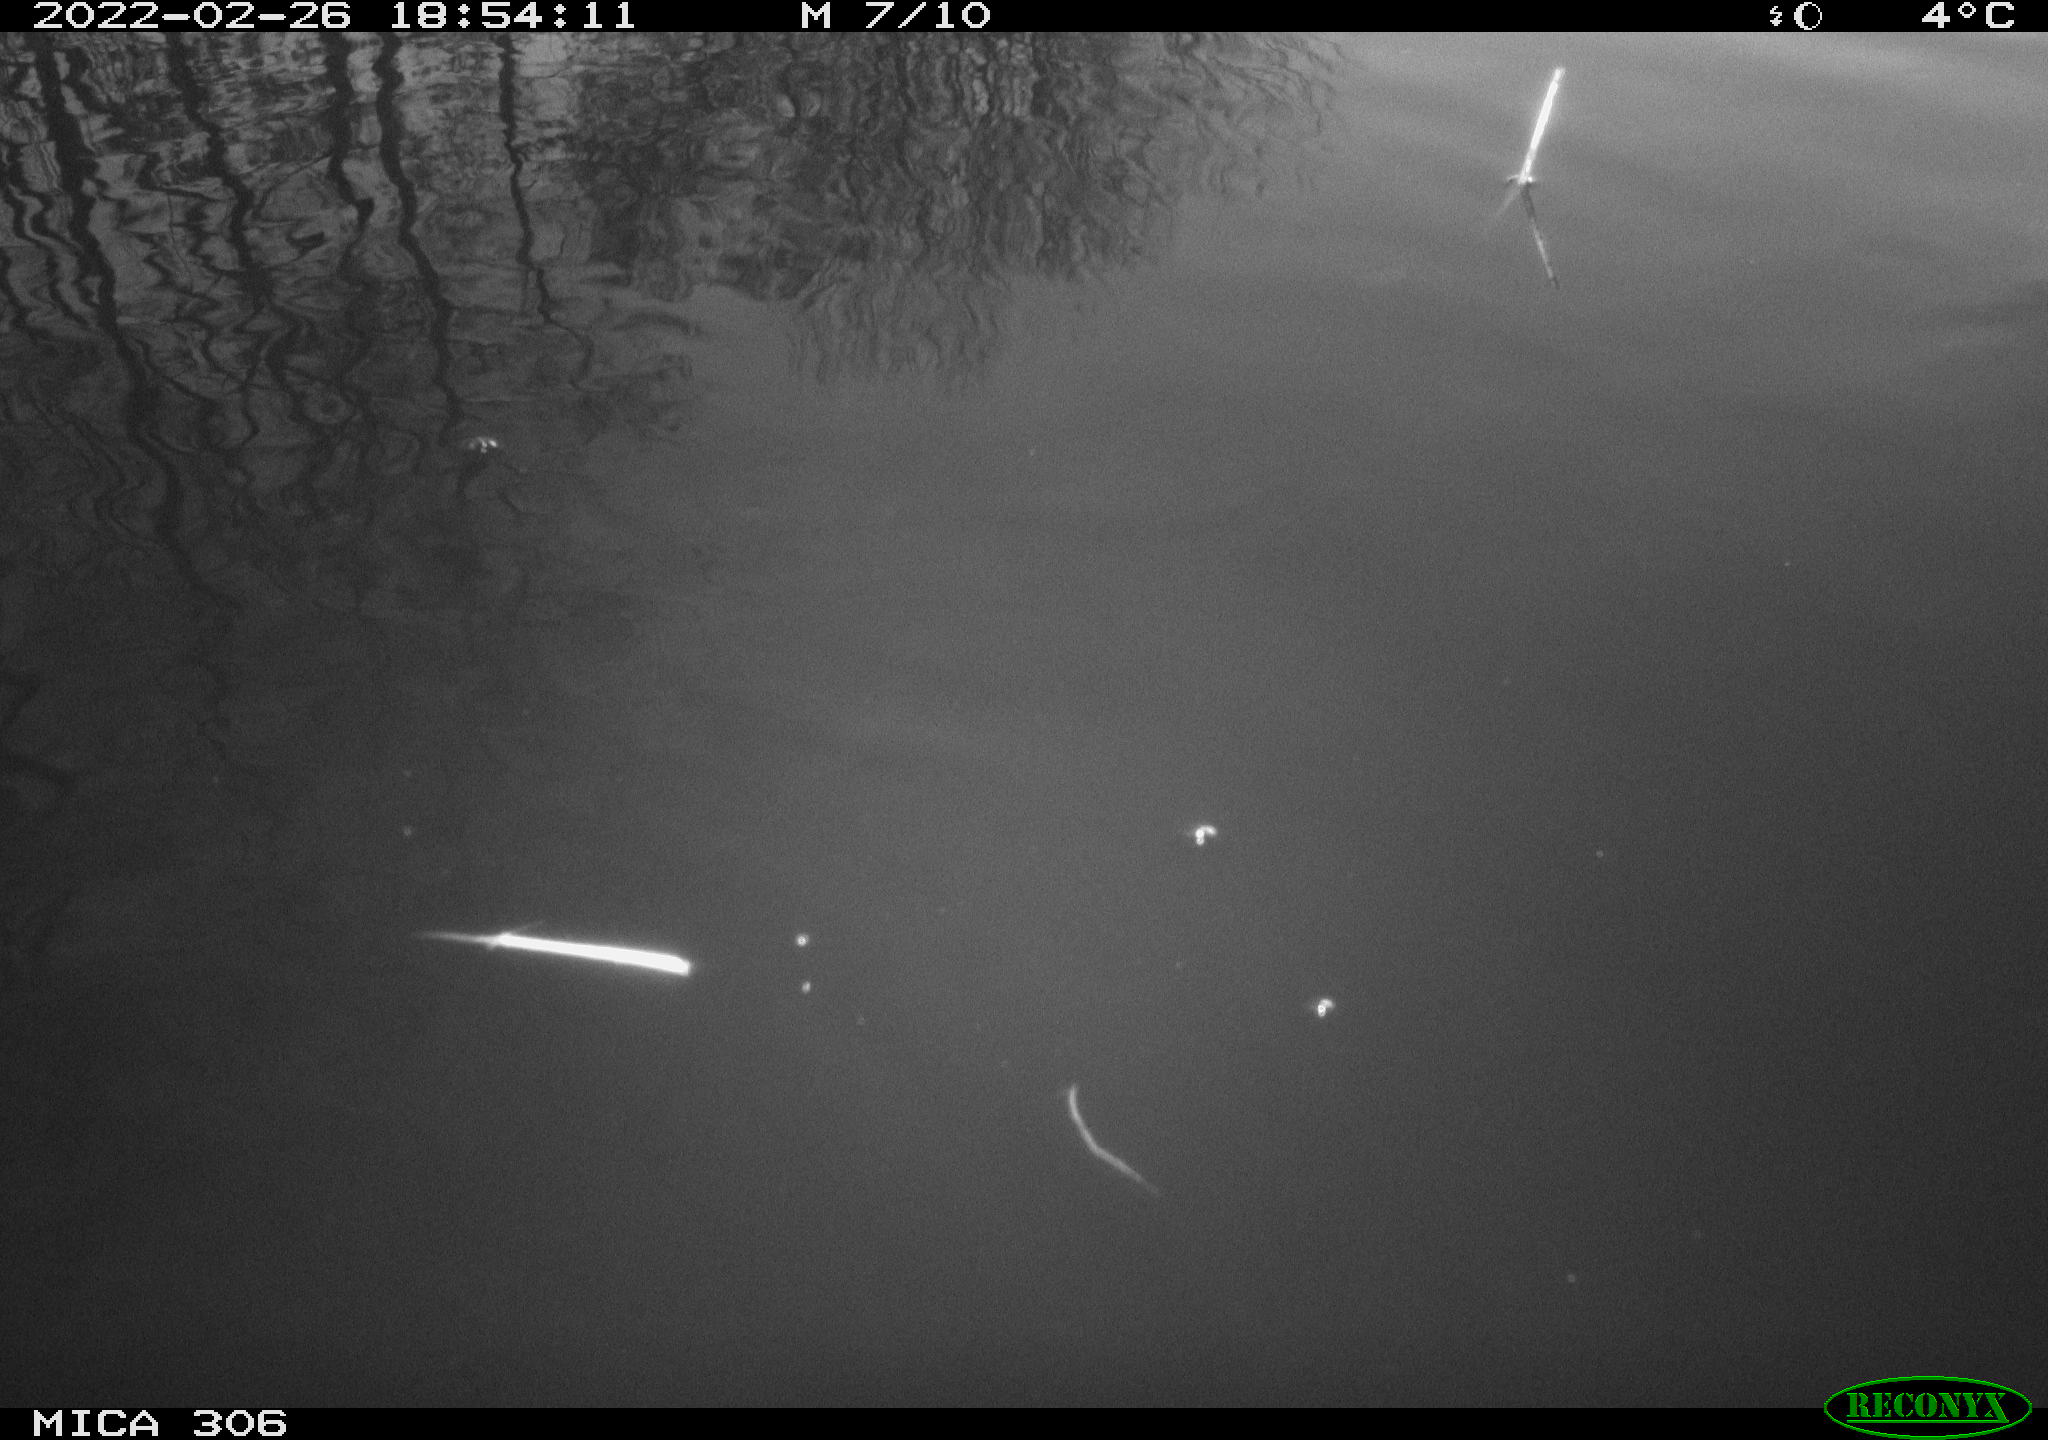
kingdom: Animalia
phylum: Chordata
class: Aves
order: Gruiformes
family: Rallidae
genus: Gallinula
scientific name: Gallinula chloropus
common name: Common moorhen
